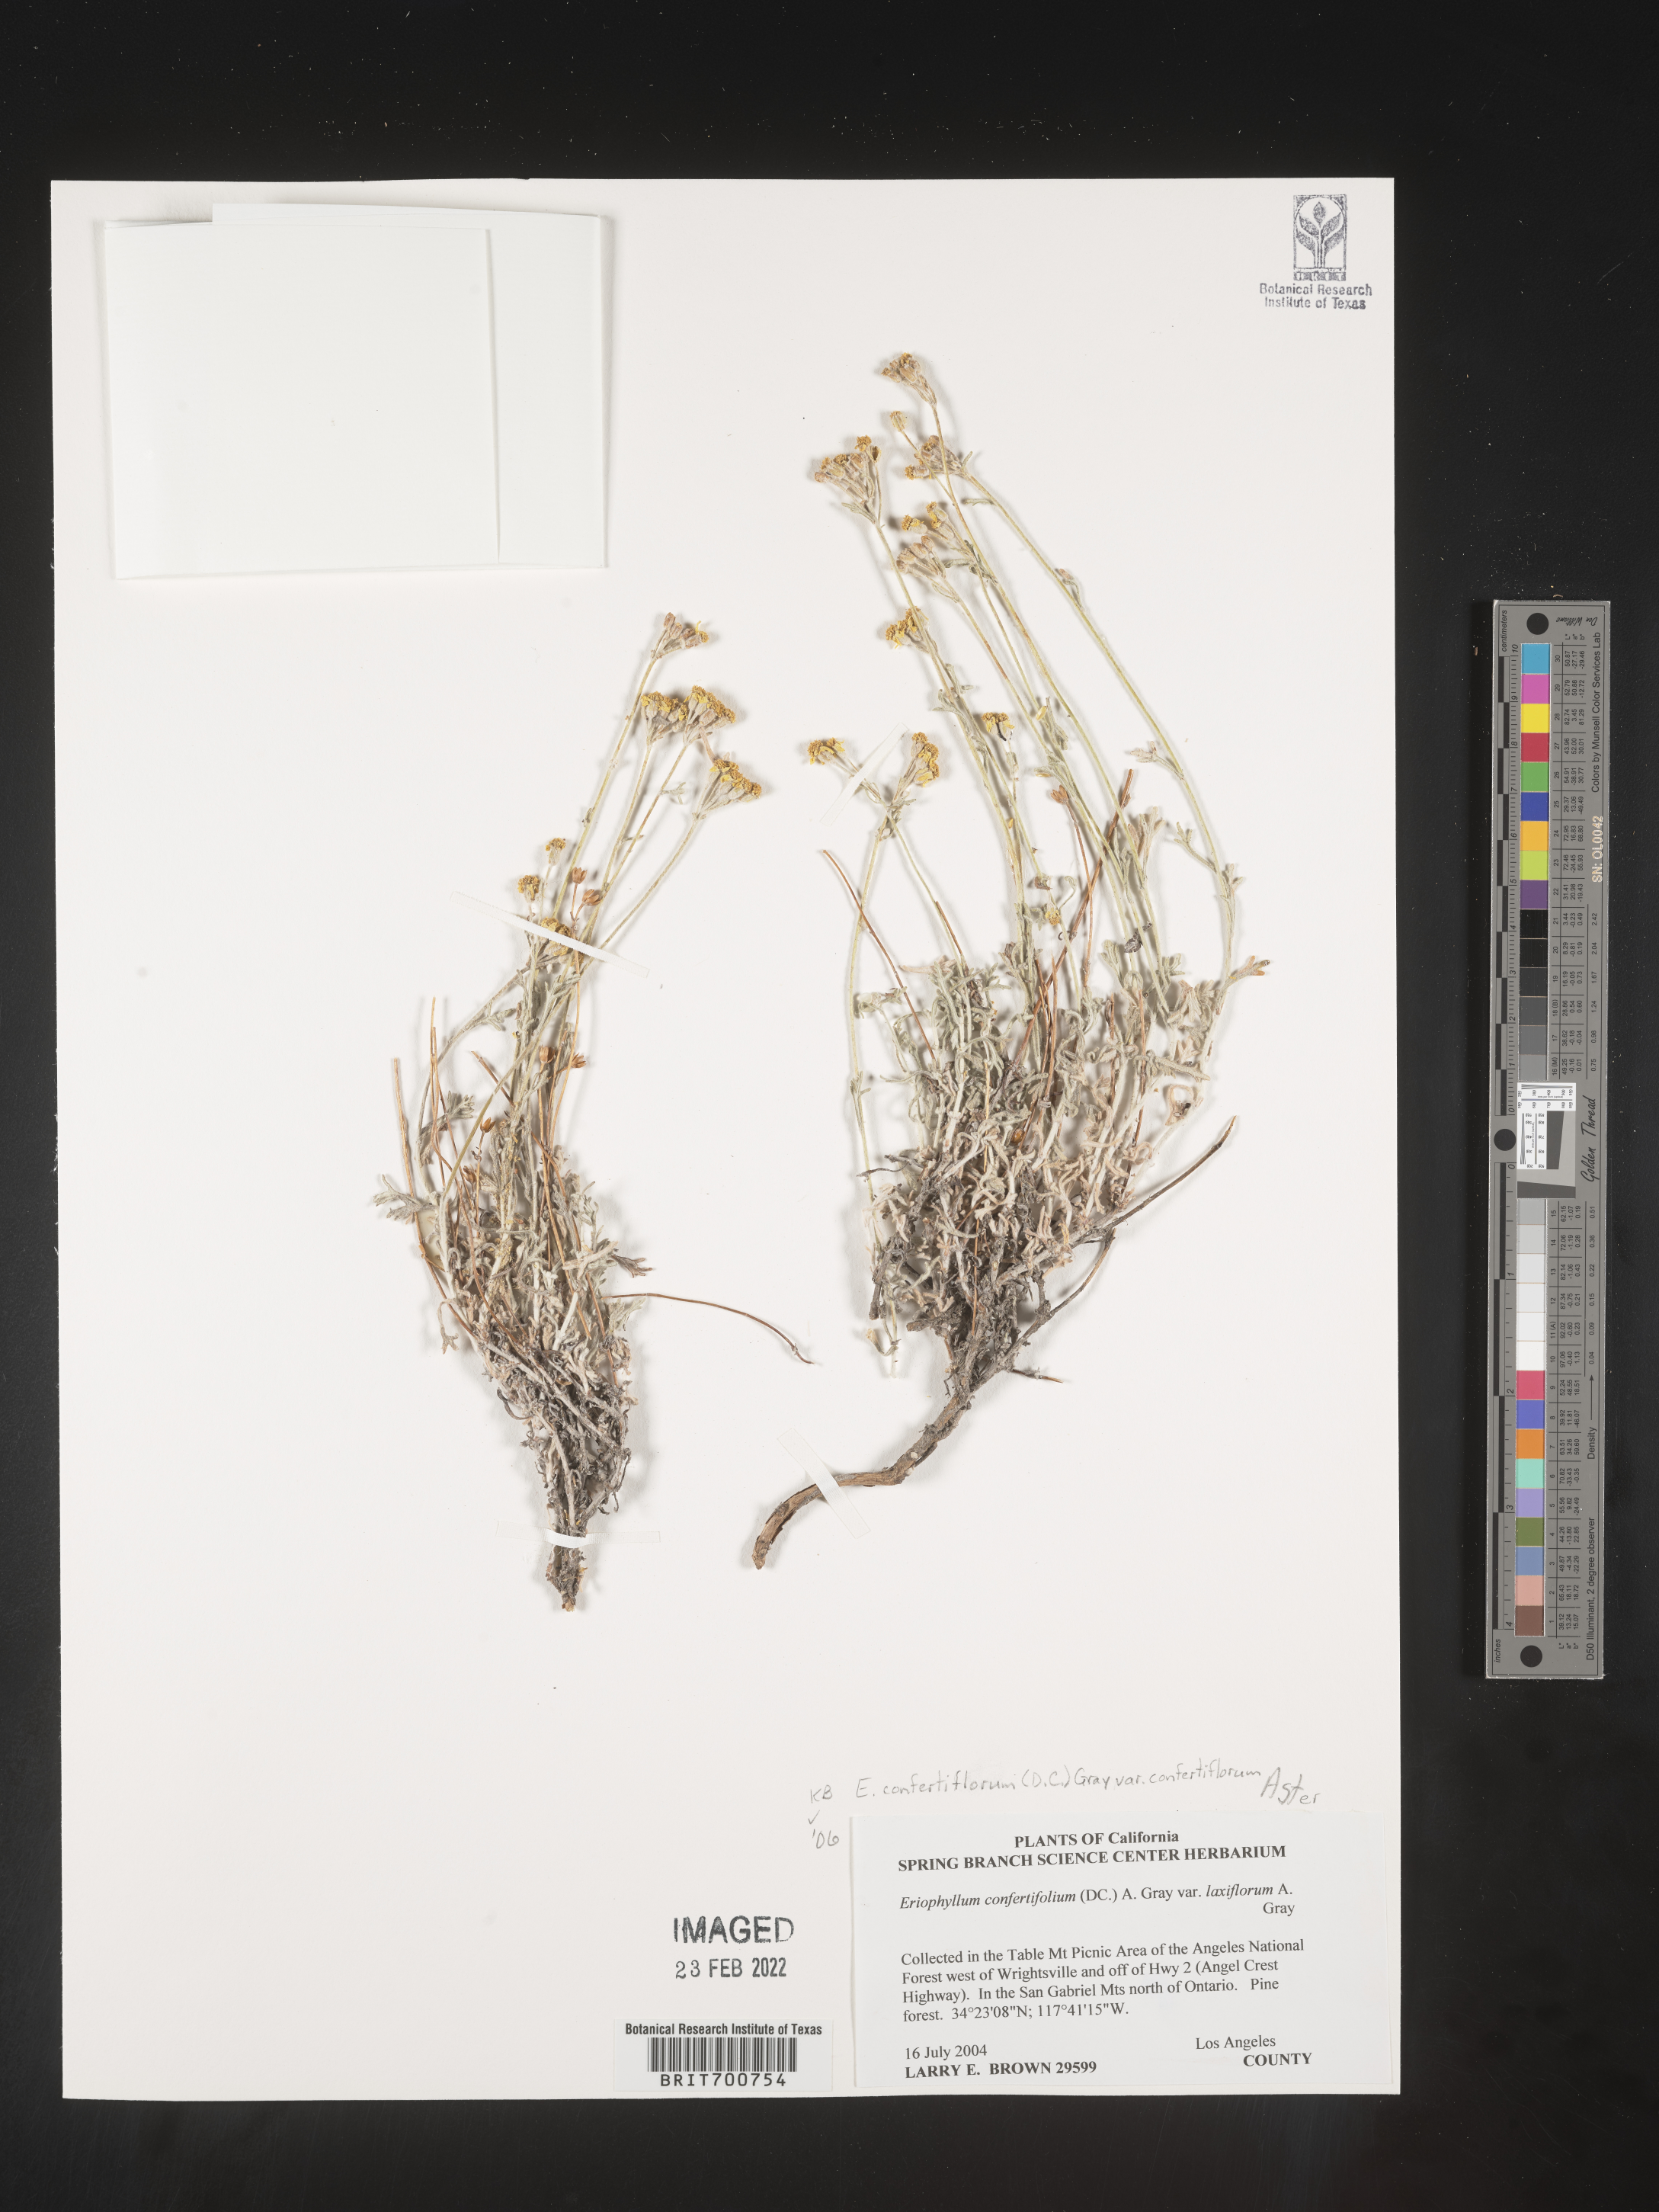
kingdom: Plantae
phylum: Tracheophyta
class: Magnoliopsida
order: Asterales
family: Asteraceae
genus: Eriophyllum
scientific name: Eriophyllum confertiflorum
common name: Golden-yarrow
